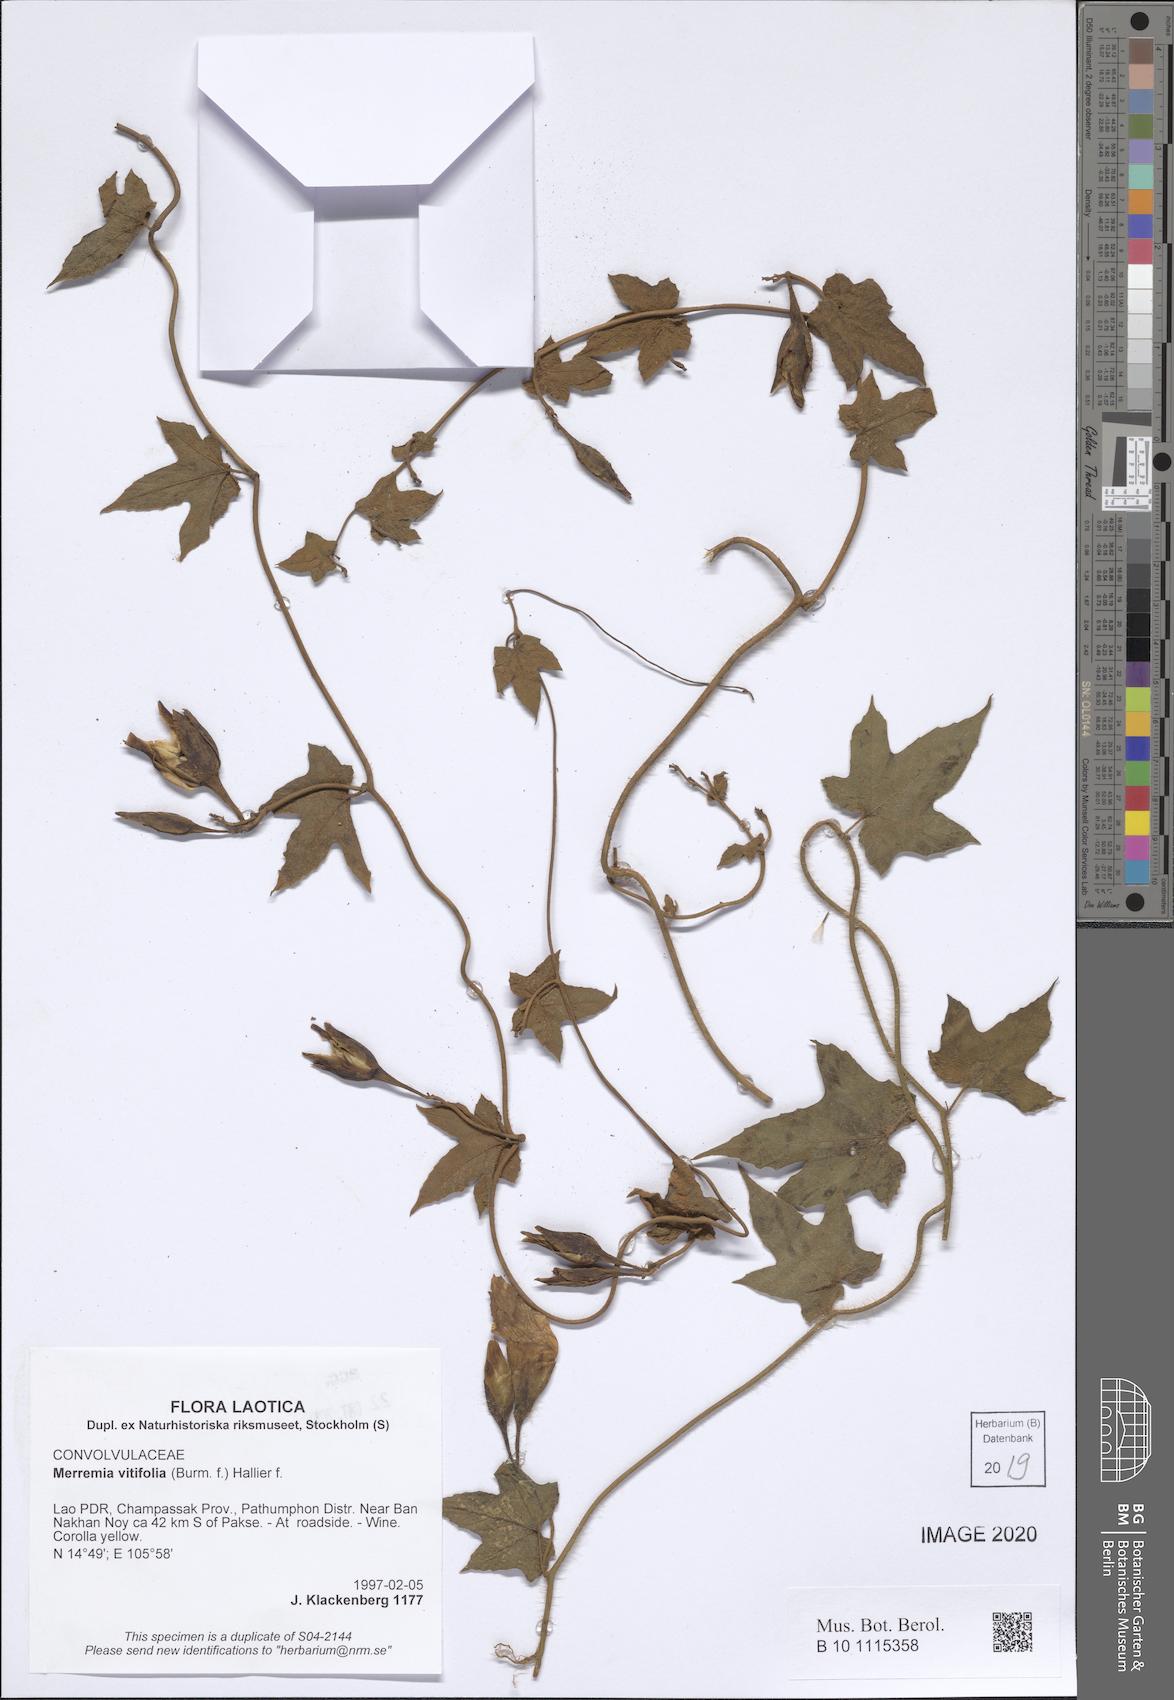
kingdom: Plantae
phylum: Tracheophyta
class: Magnoliopsida
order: Solanales
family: Convolvulaceae
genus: Camonea
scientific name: Camonea vitifolia
